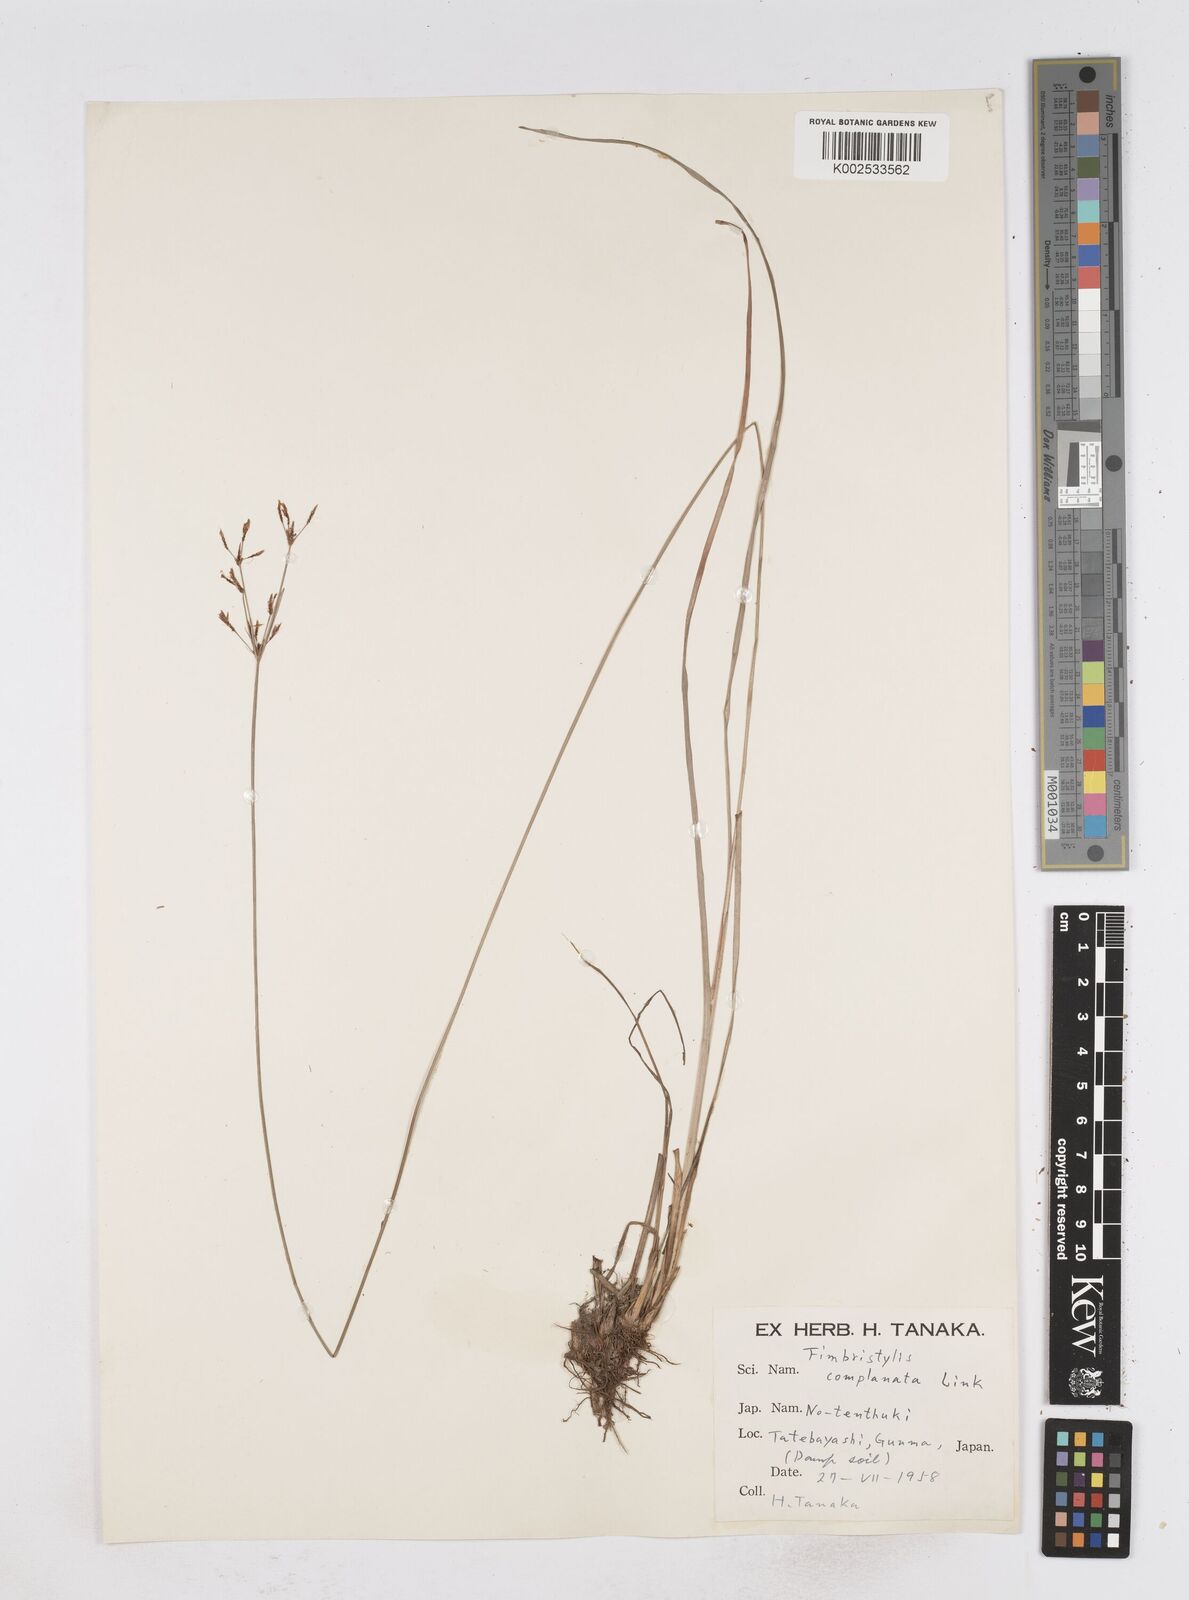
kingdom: Plantae
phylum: Tracheophyta
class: Liliopsida
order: Poales
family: Cyperaceae
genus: Fimbristylis
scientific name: Fimbristylis complanata
